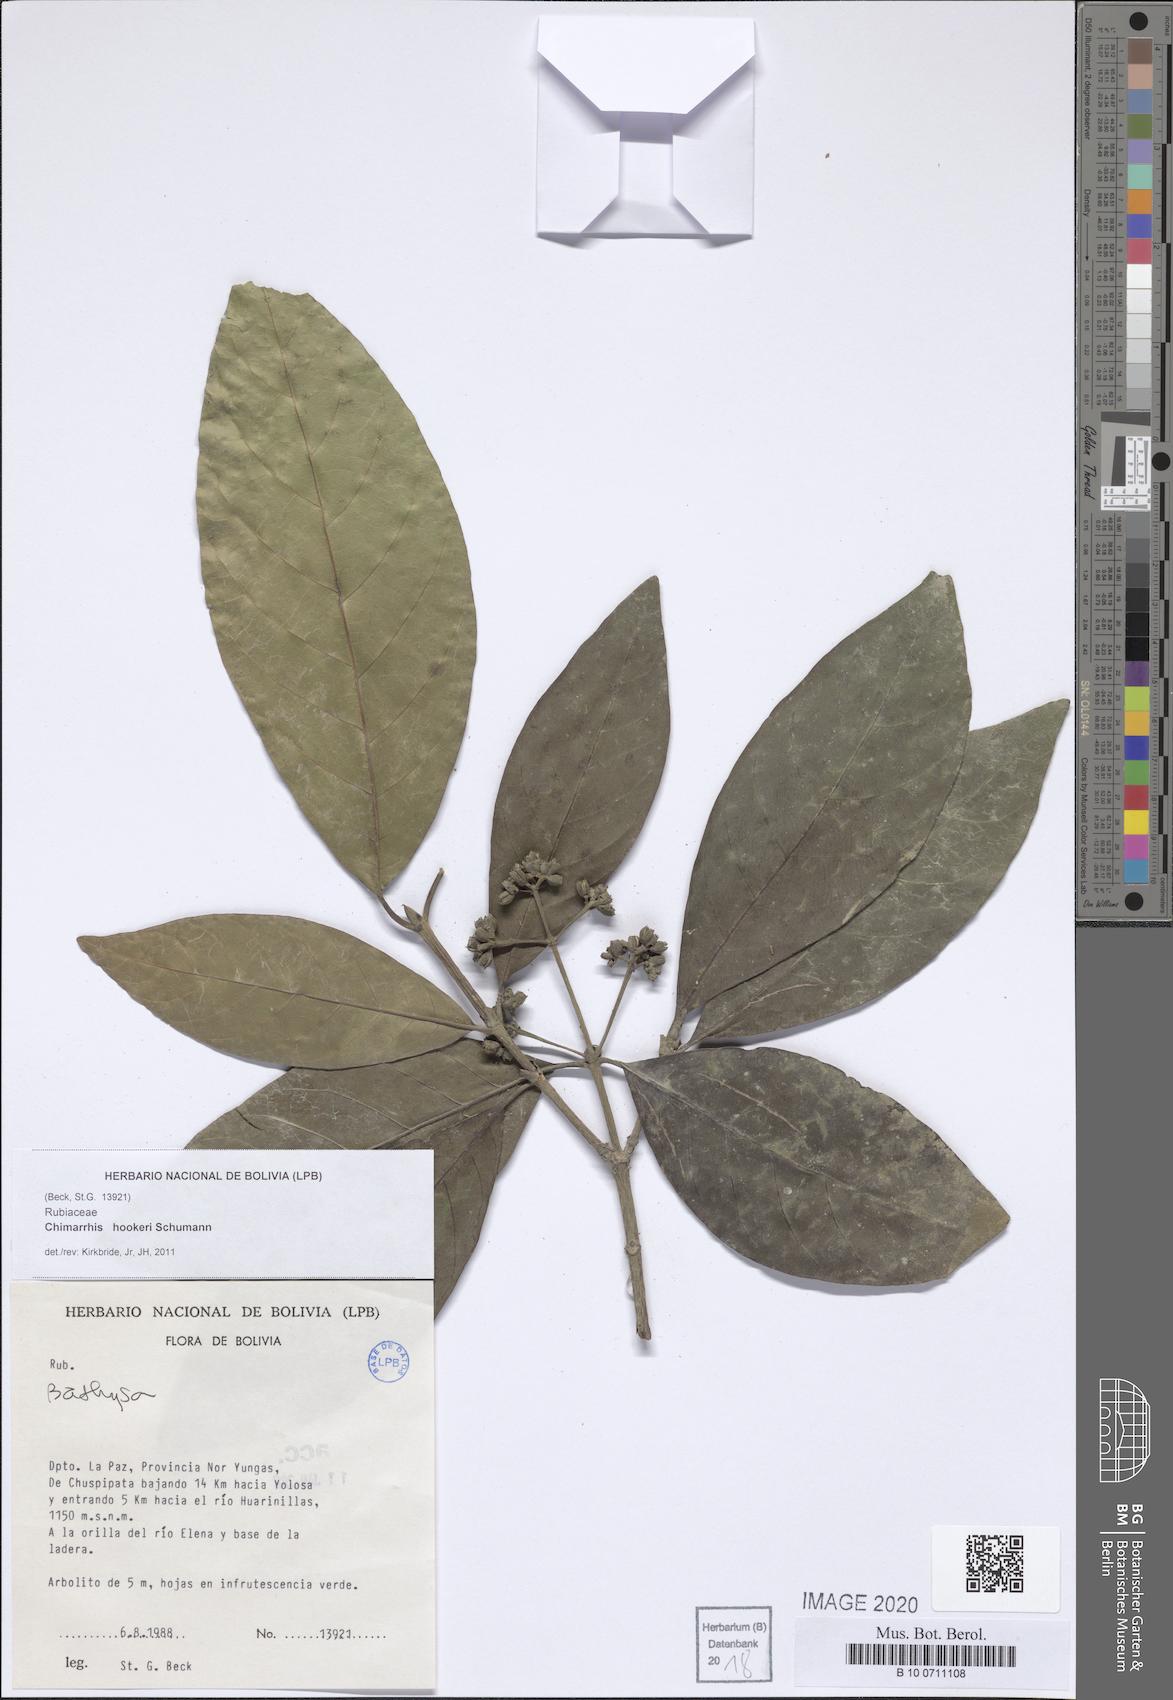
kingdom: Plantae
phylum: Tracheophyta
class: Magnoliopsida
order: Gentianales
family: Rubiaceae
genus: Chimarrhis
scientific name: Chimarrhis hookeri
